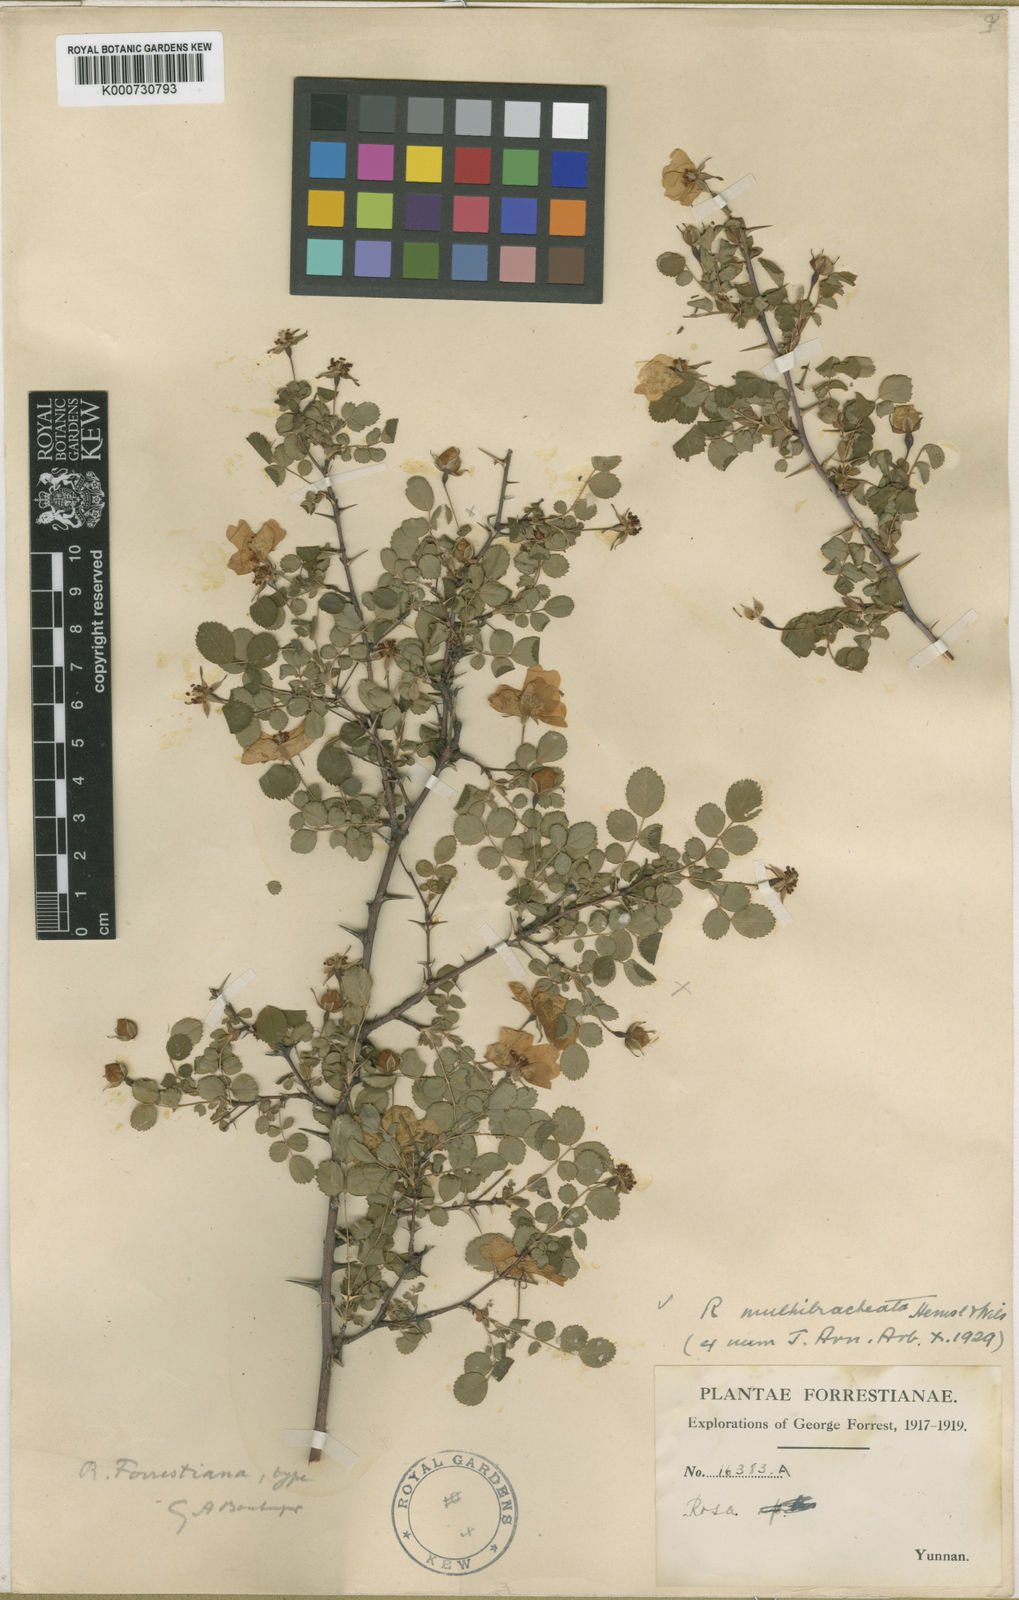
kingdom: Plantae
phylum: Tracheophyta
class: Magnoliopsida
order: Rosales
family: Rosaceae
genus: Rosa
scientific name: Rosa forrestiana
